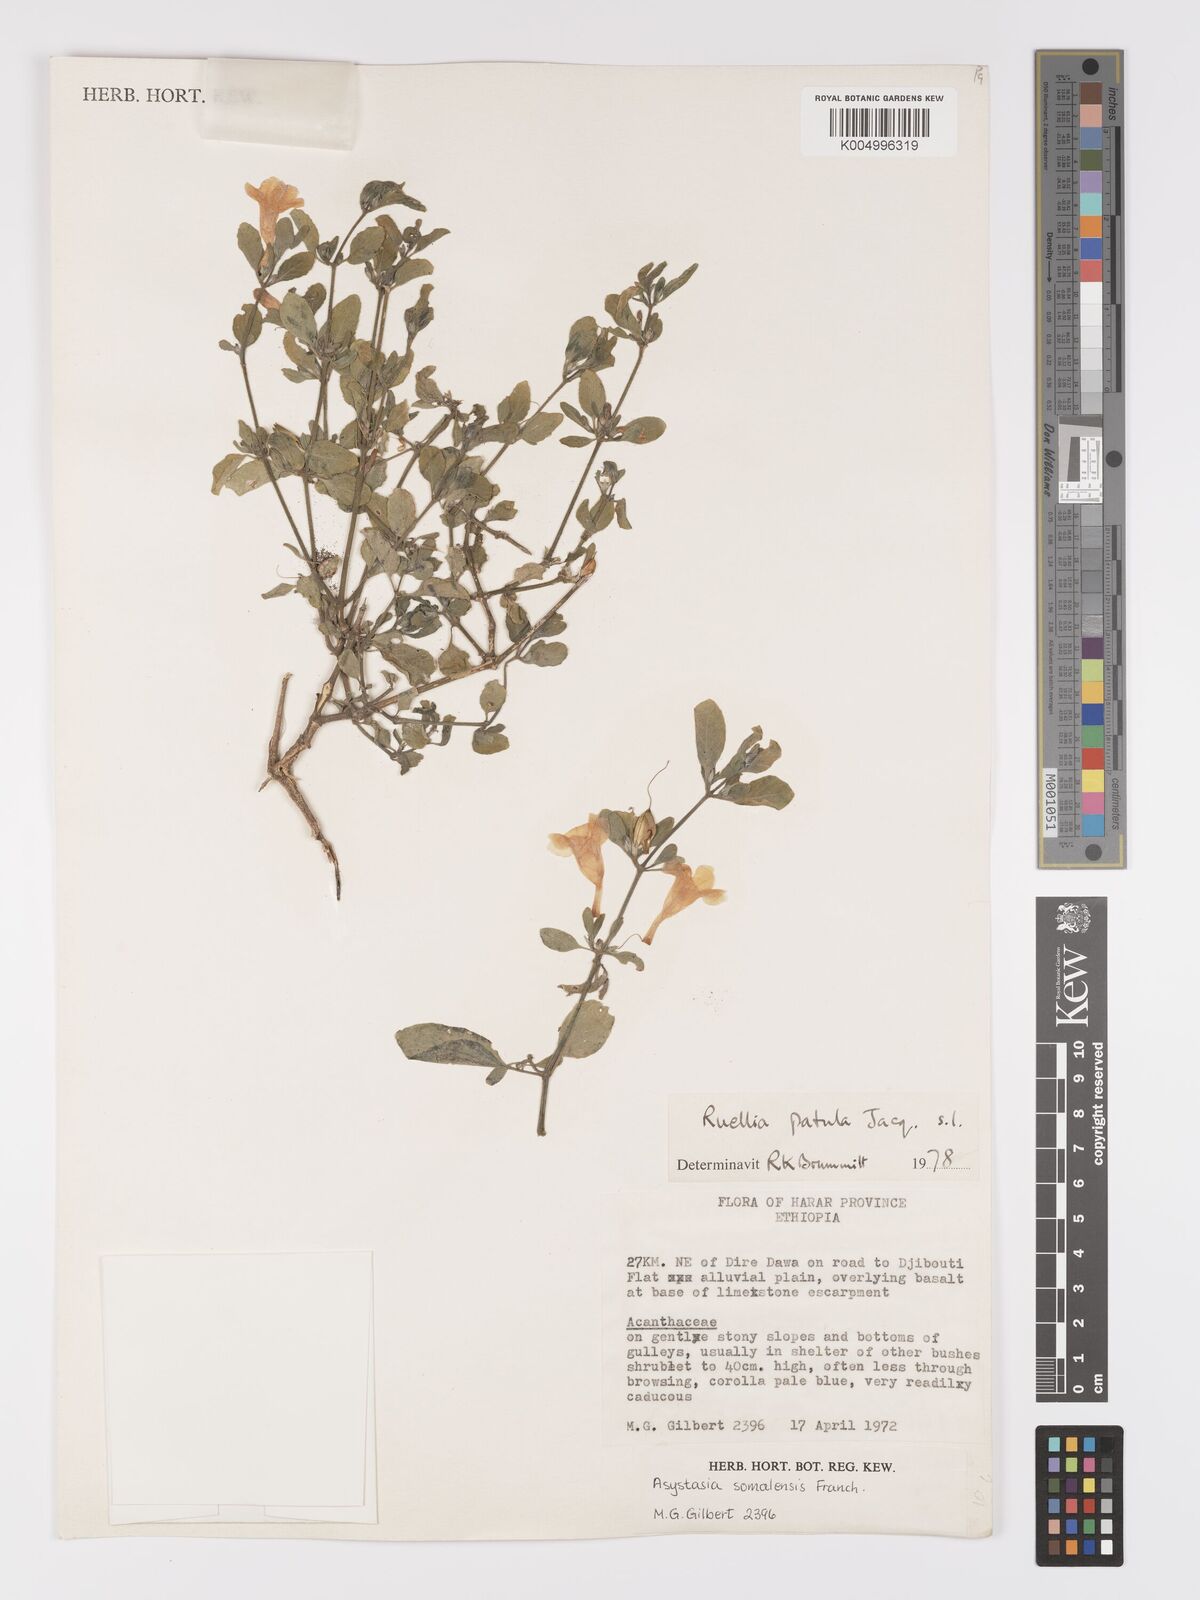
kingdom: Plantae
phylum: Tracheophyta
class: Magnoliopsida
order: Lamiales
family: Acanthaceae
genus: Ruellia
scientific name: Ruellia patula
